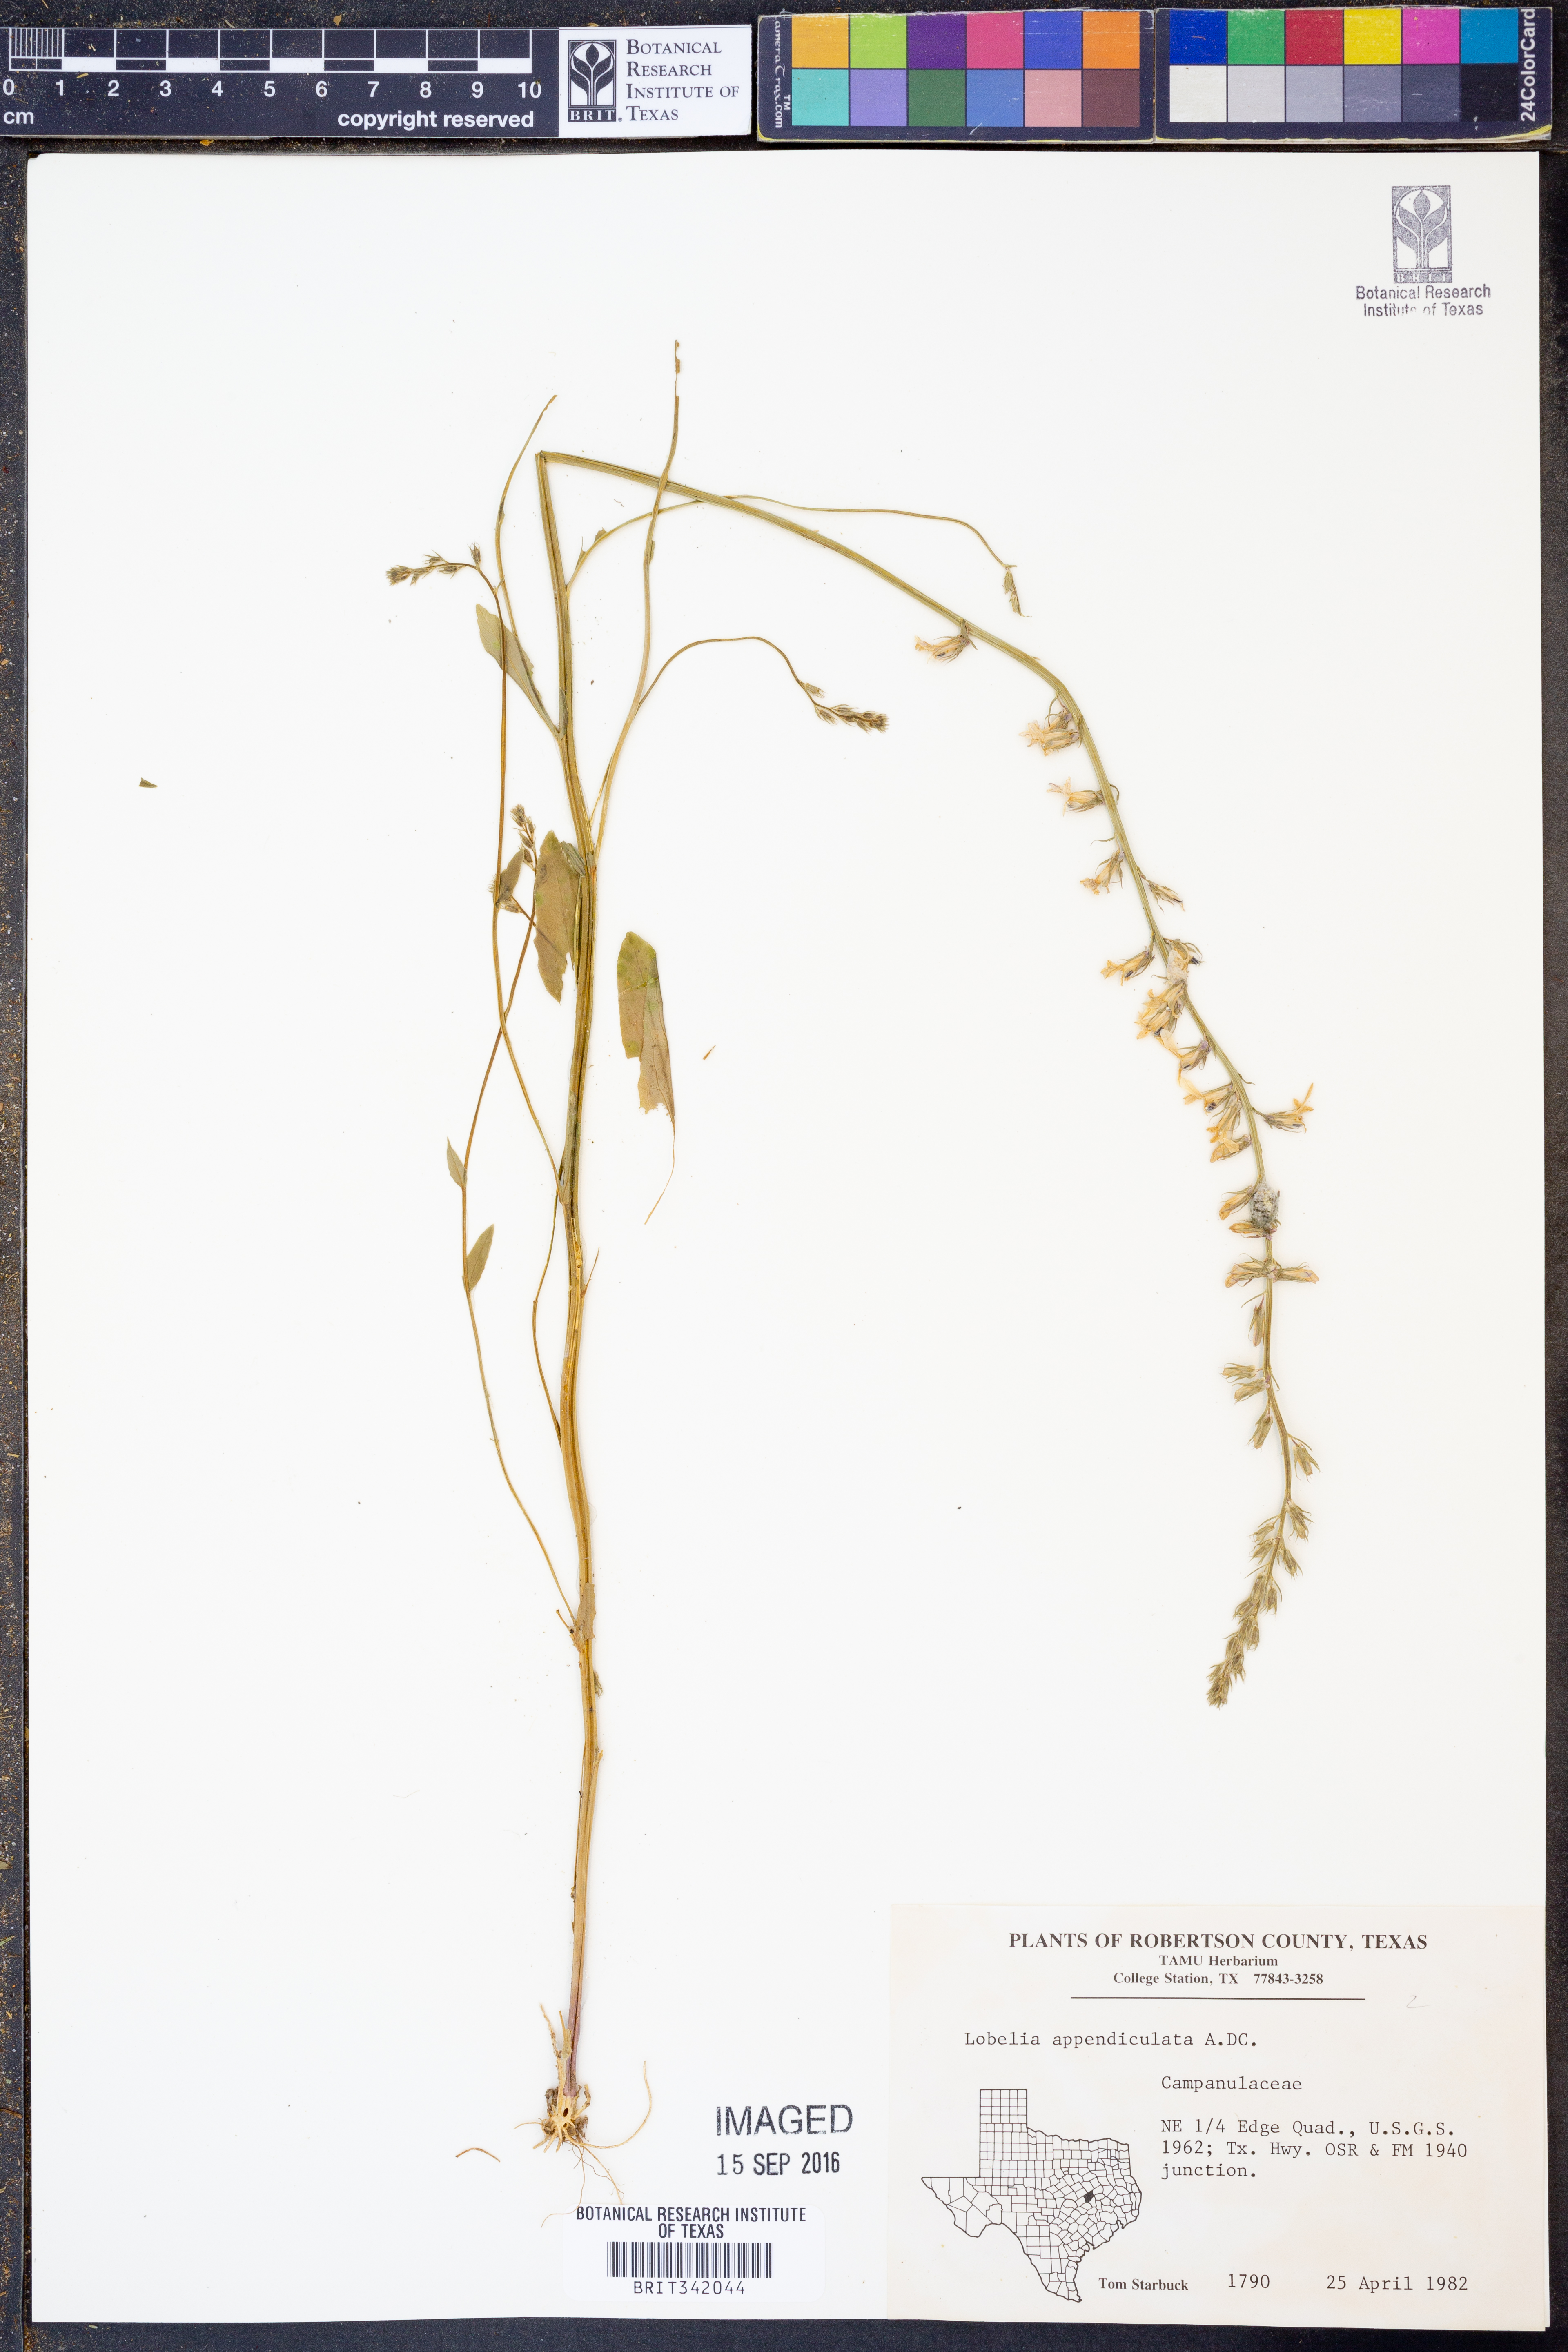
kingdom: Plantae
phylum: Tracheophyta
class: Magnoliopsida
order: Asterales
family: Campanulaceae
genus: Lobelia
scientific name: Lobelia appendiculata
